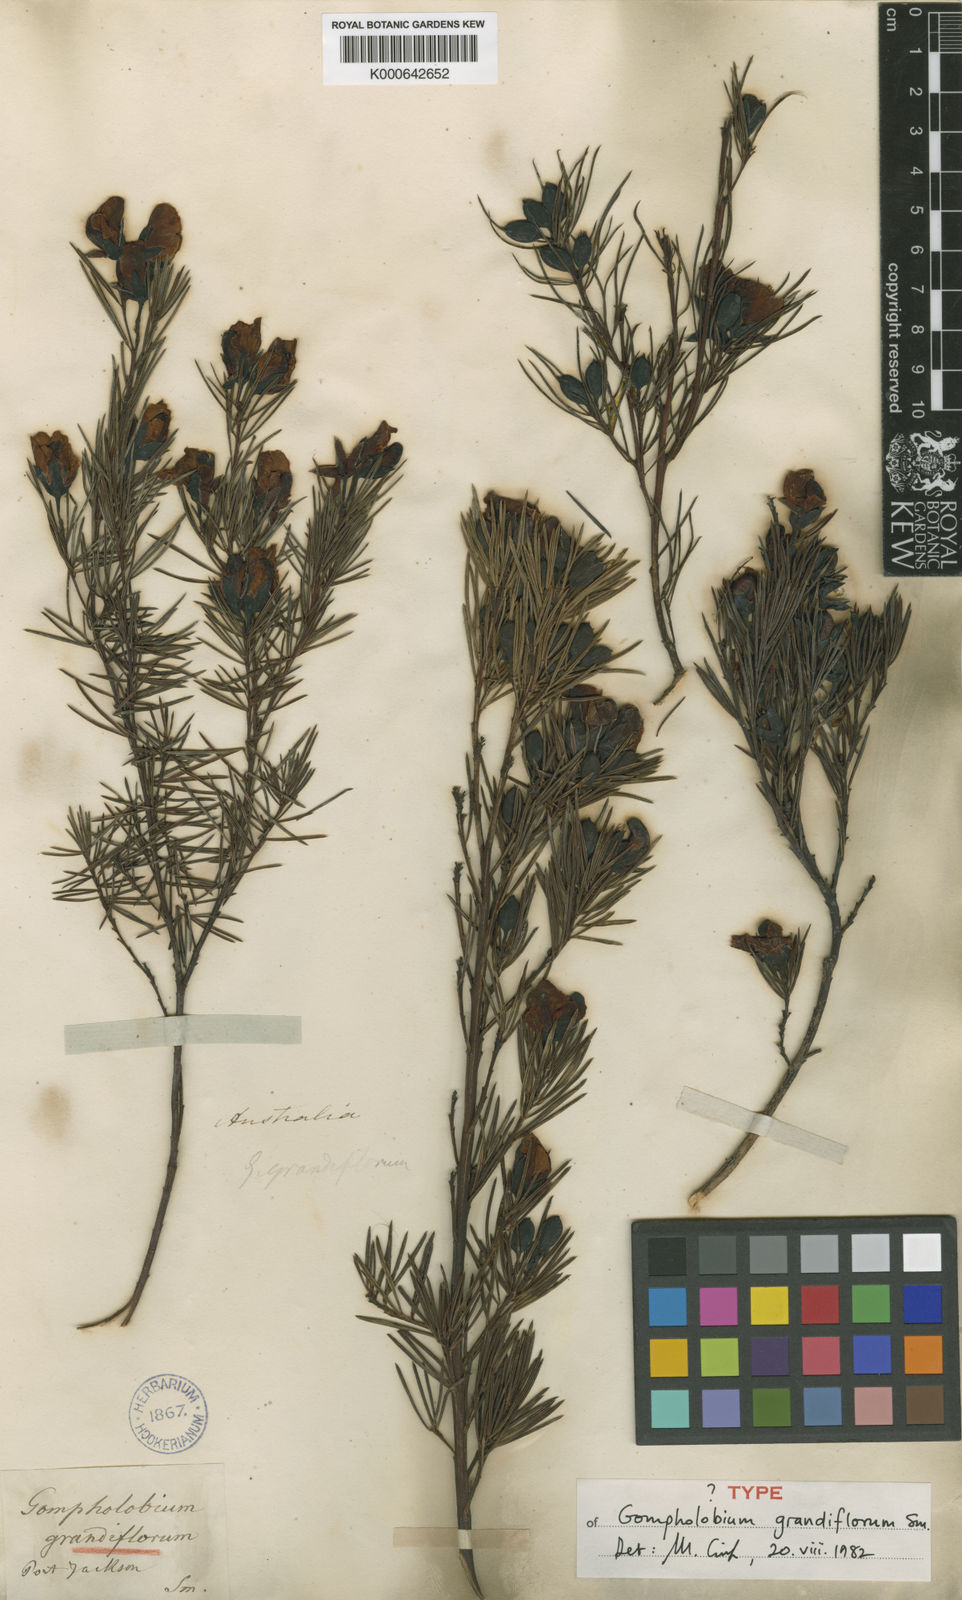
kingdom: Plantae
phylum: Tracheophyta
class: Magnoliopsida
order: Fabales
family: Fabaceae
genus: Gompholobium
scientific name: Gompholobium grandiflorum
